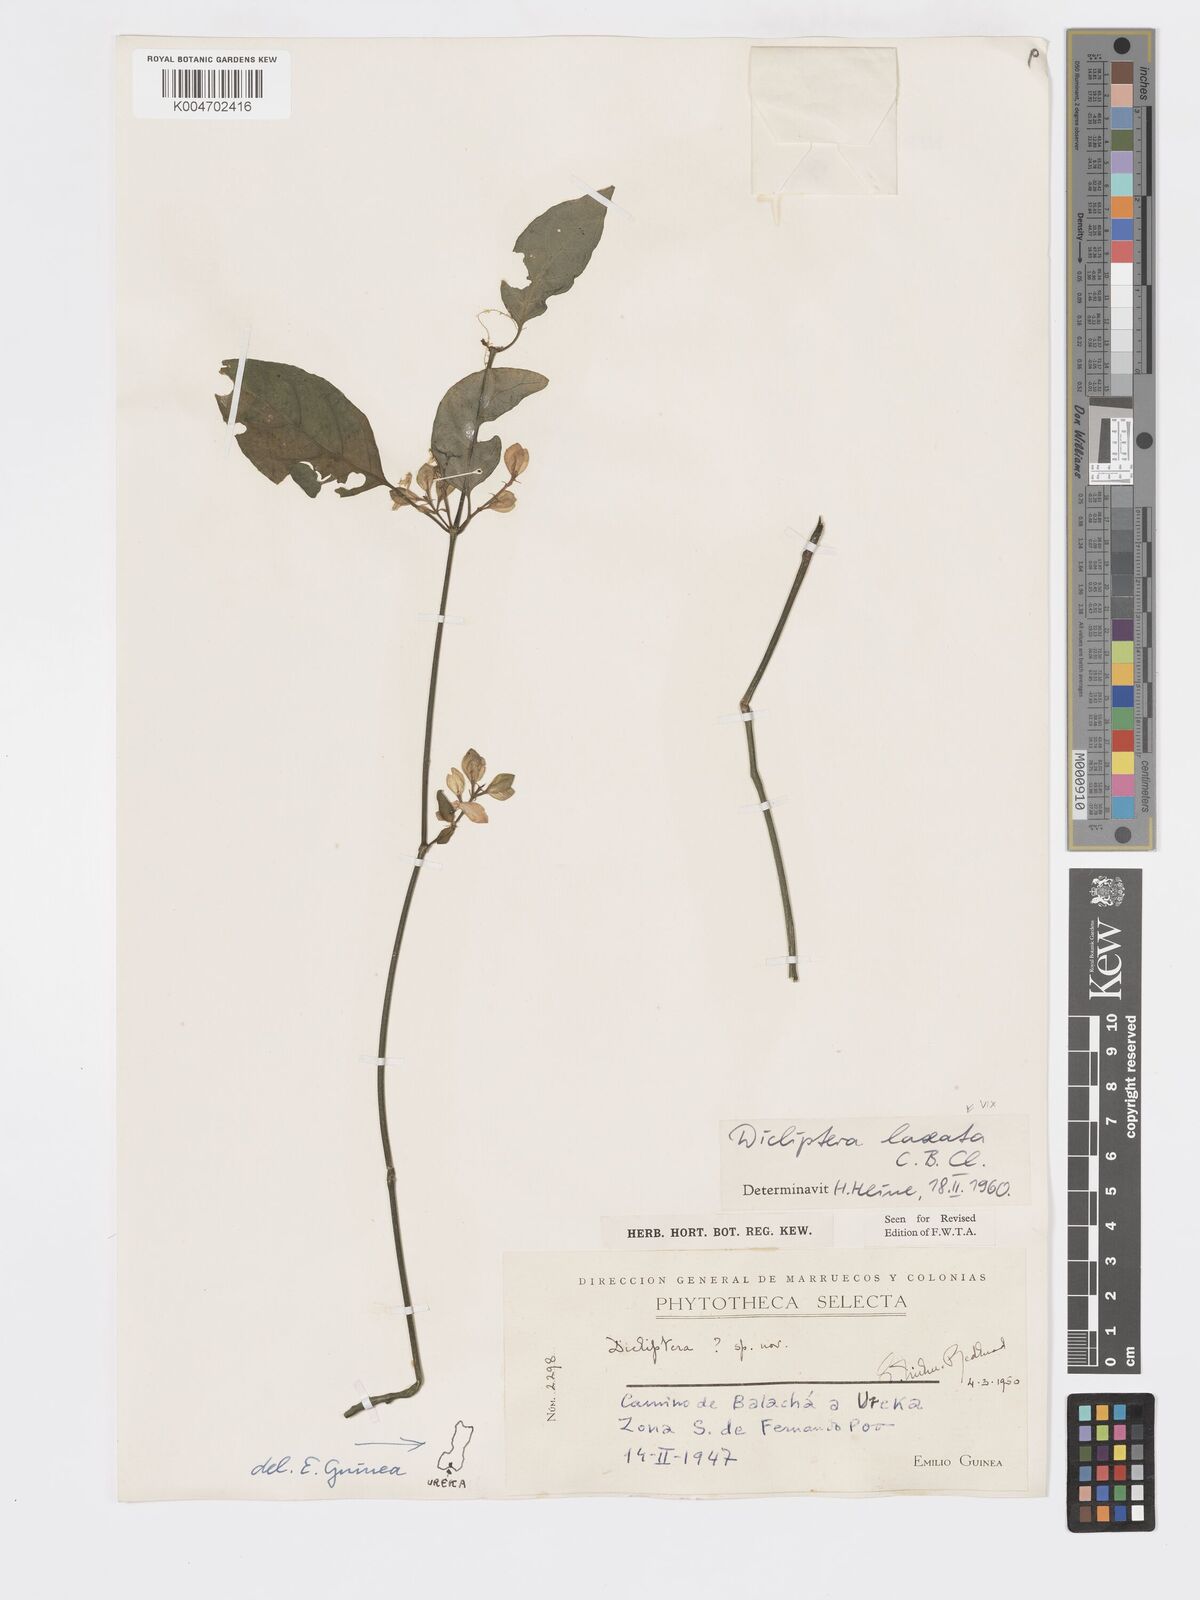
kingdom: Plantae
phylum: Tracheophyta
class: Magnoliopsida
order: Lamiales
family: Acanthaceae
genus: Dicliptera
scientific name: Dicliptera elliotii
